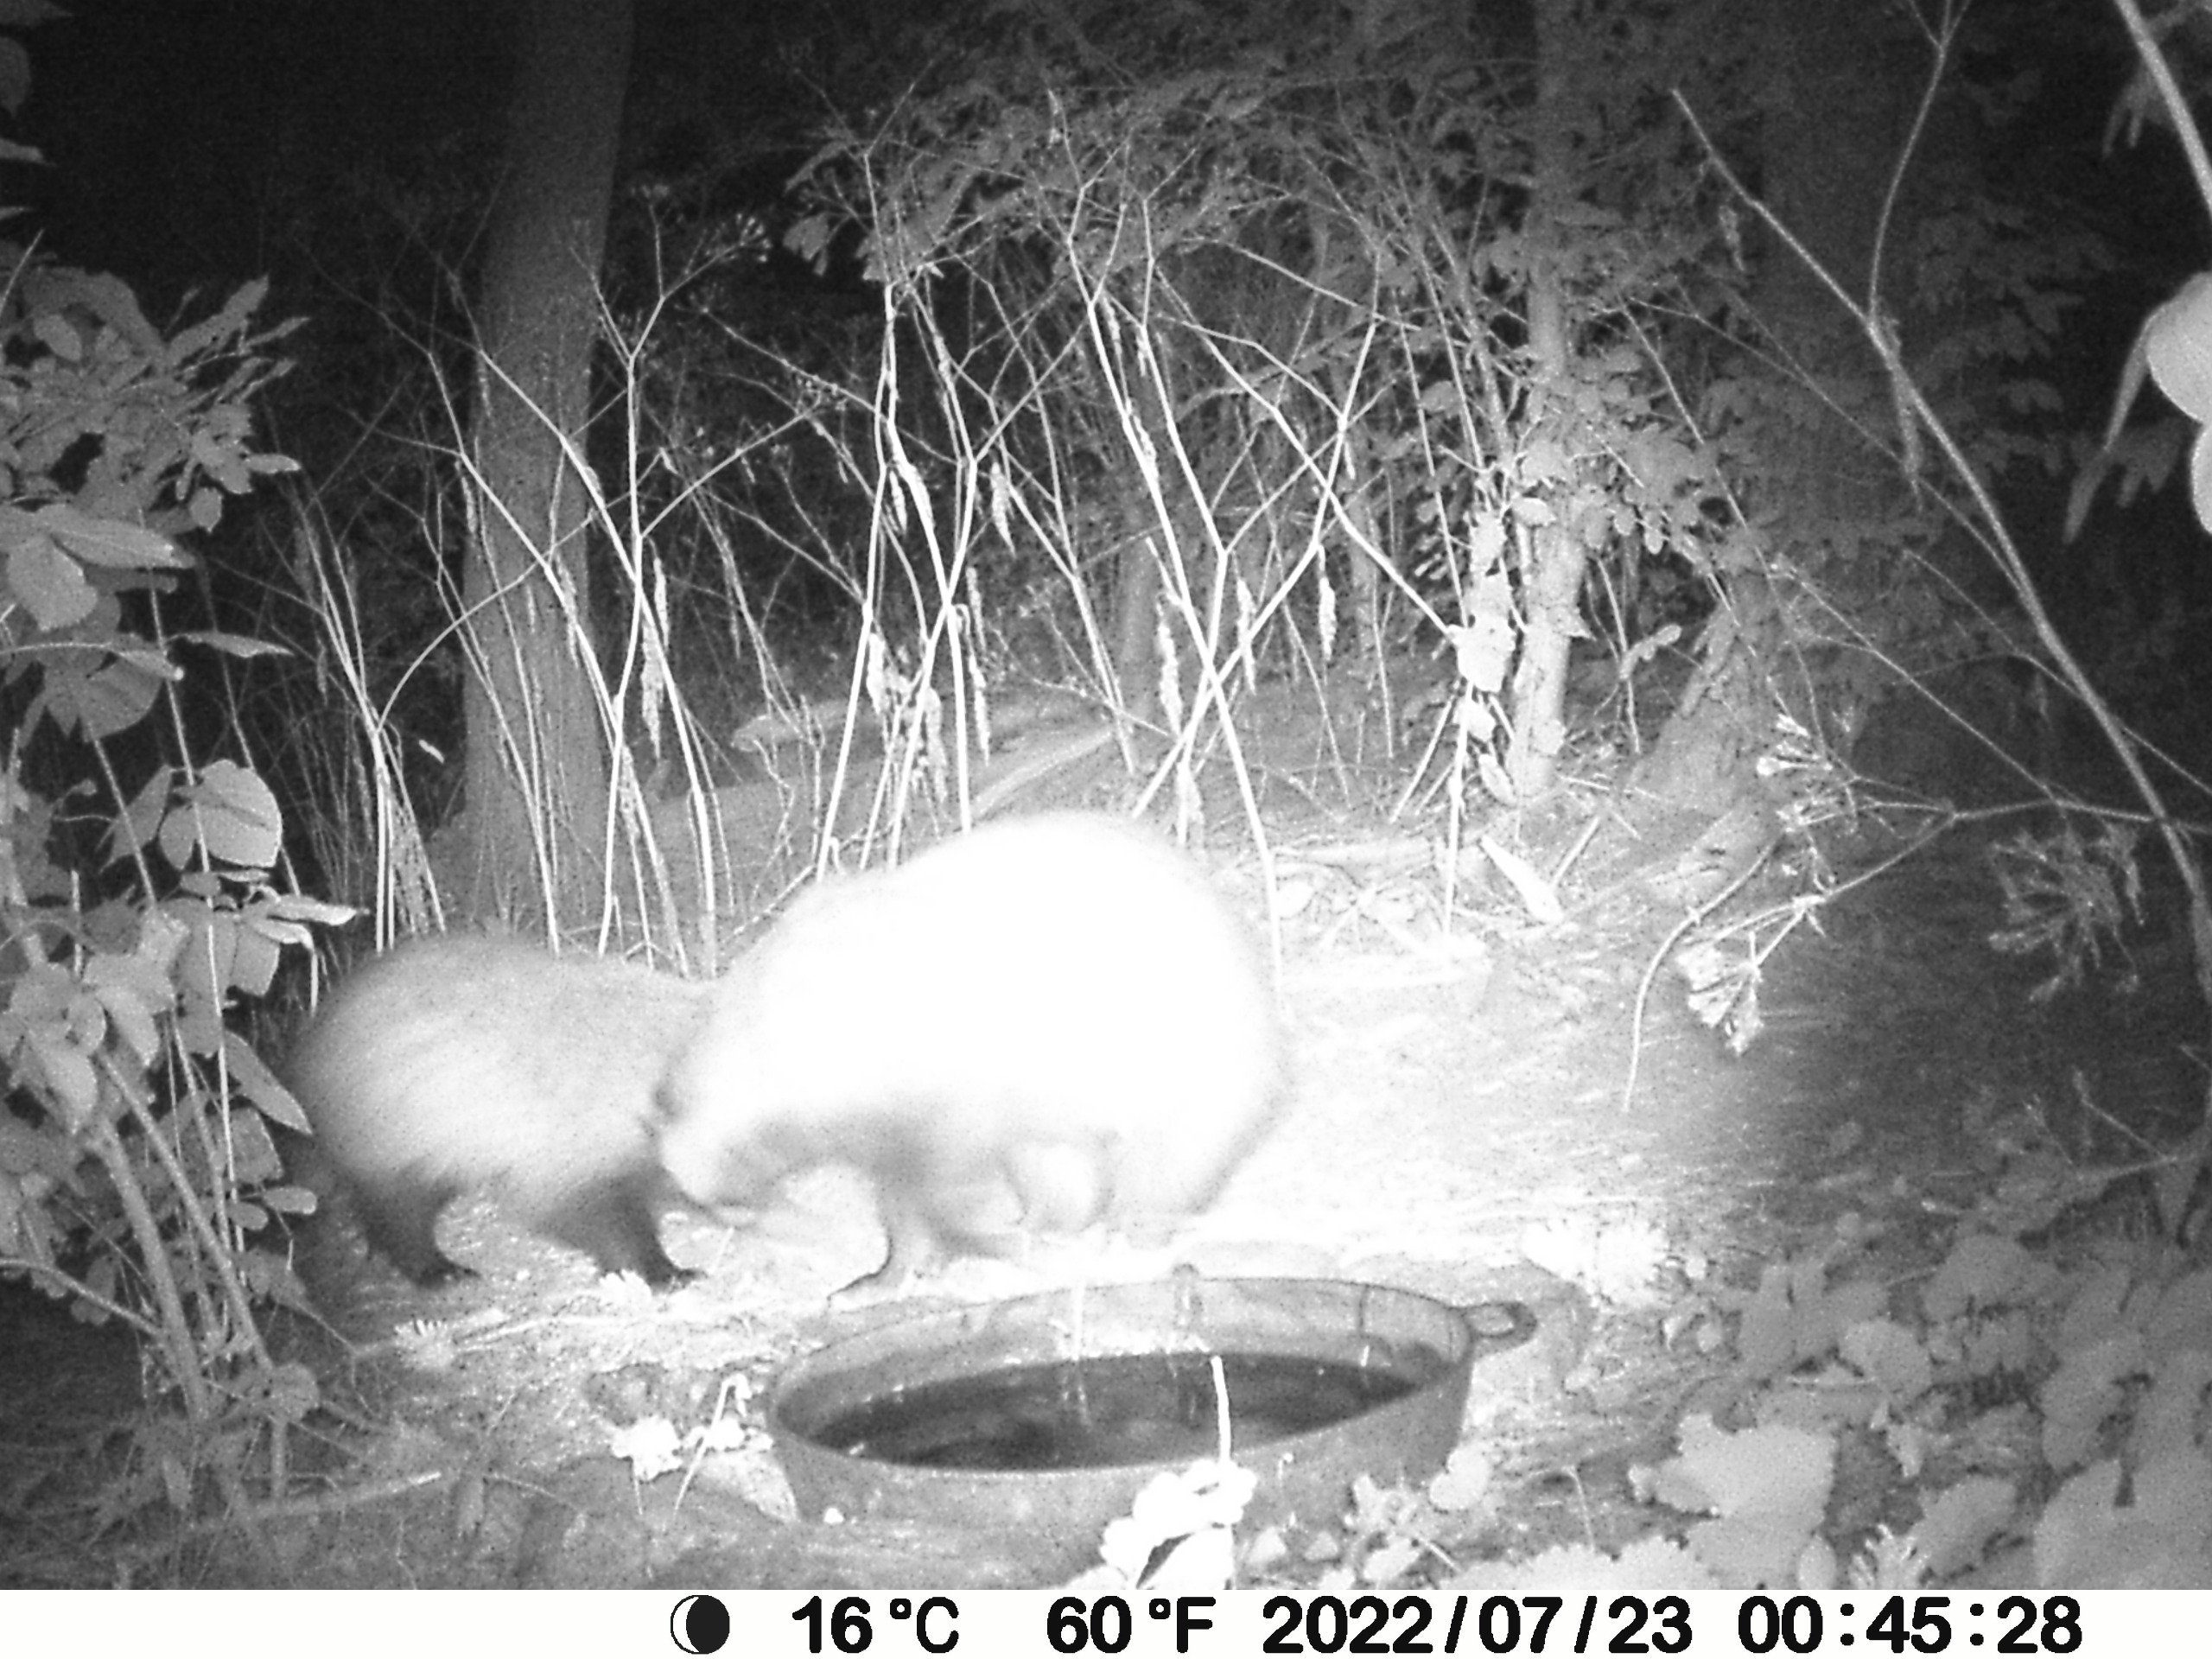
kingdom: Animalia
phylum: Chordata
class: Mammalia
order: Carnivora
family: Mustelidae
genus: Meles
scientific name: Meles meles
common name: Grævling
